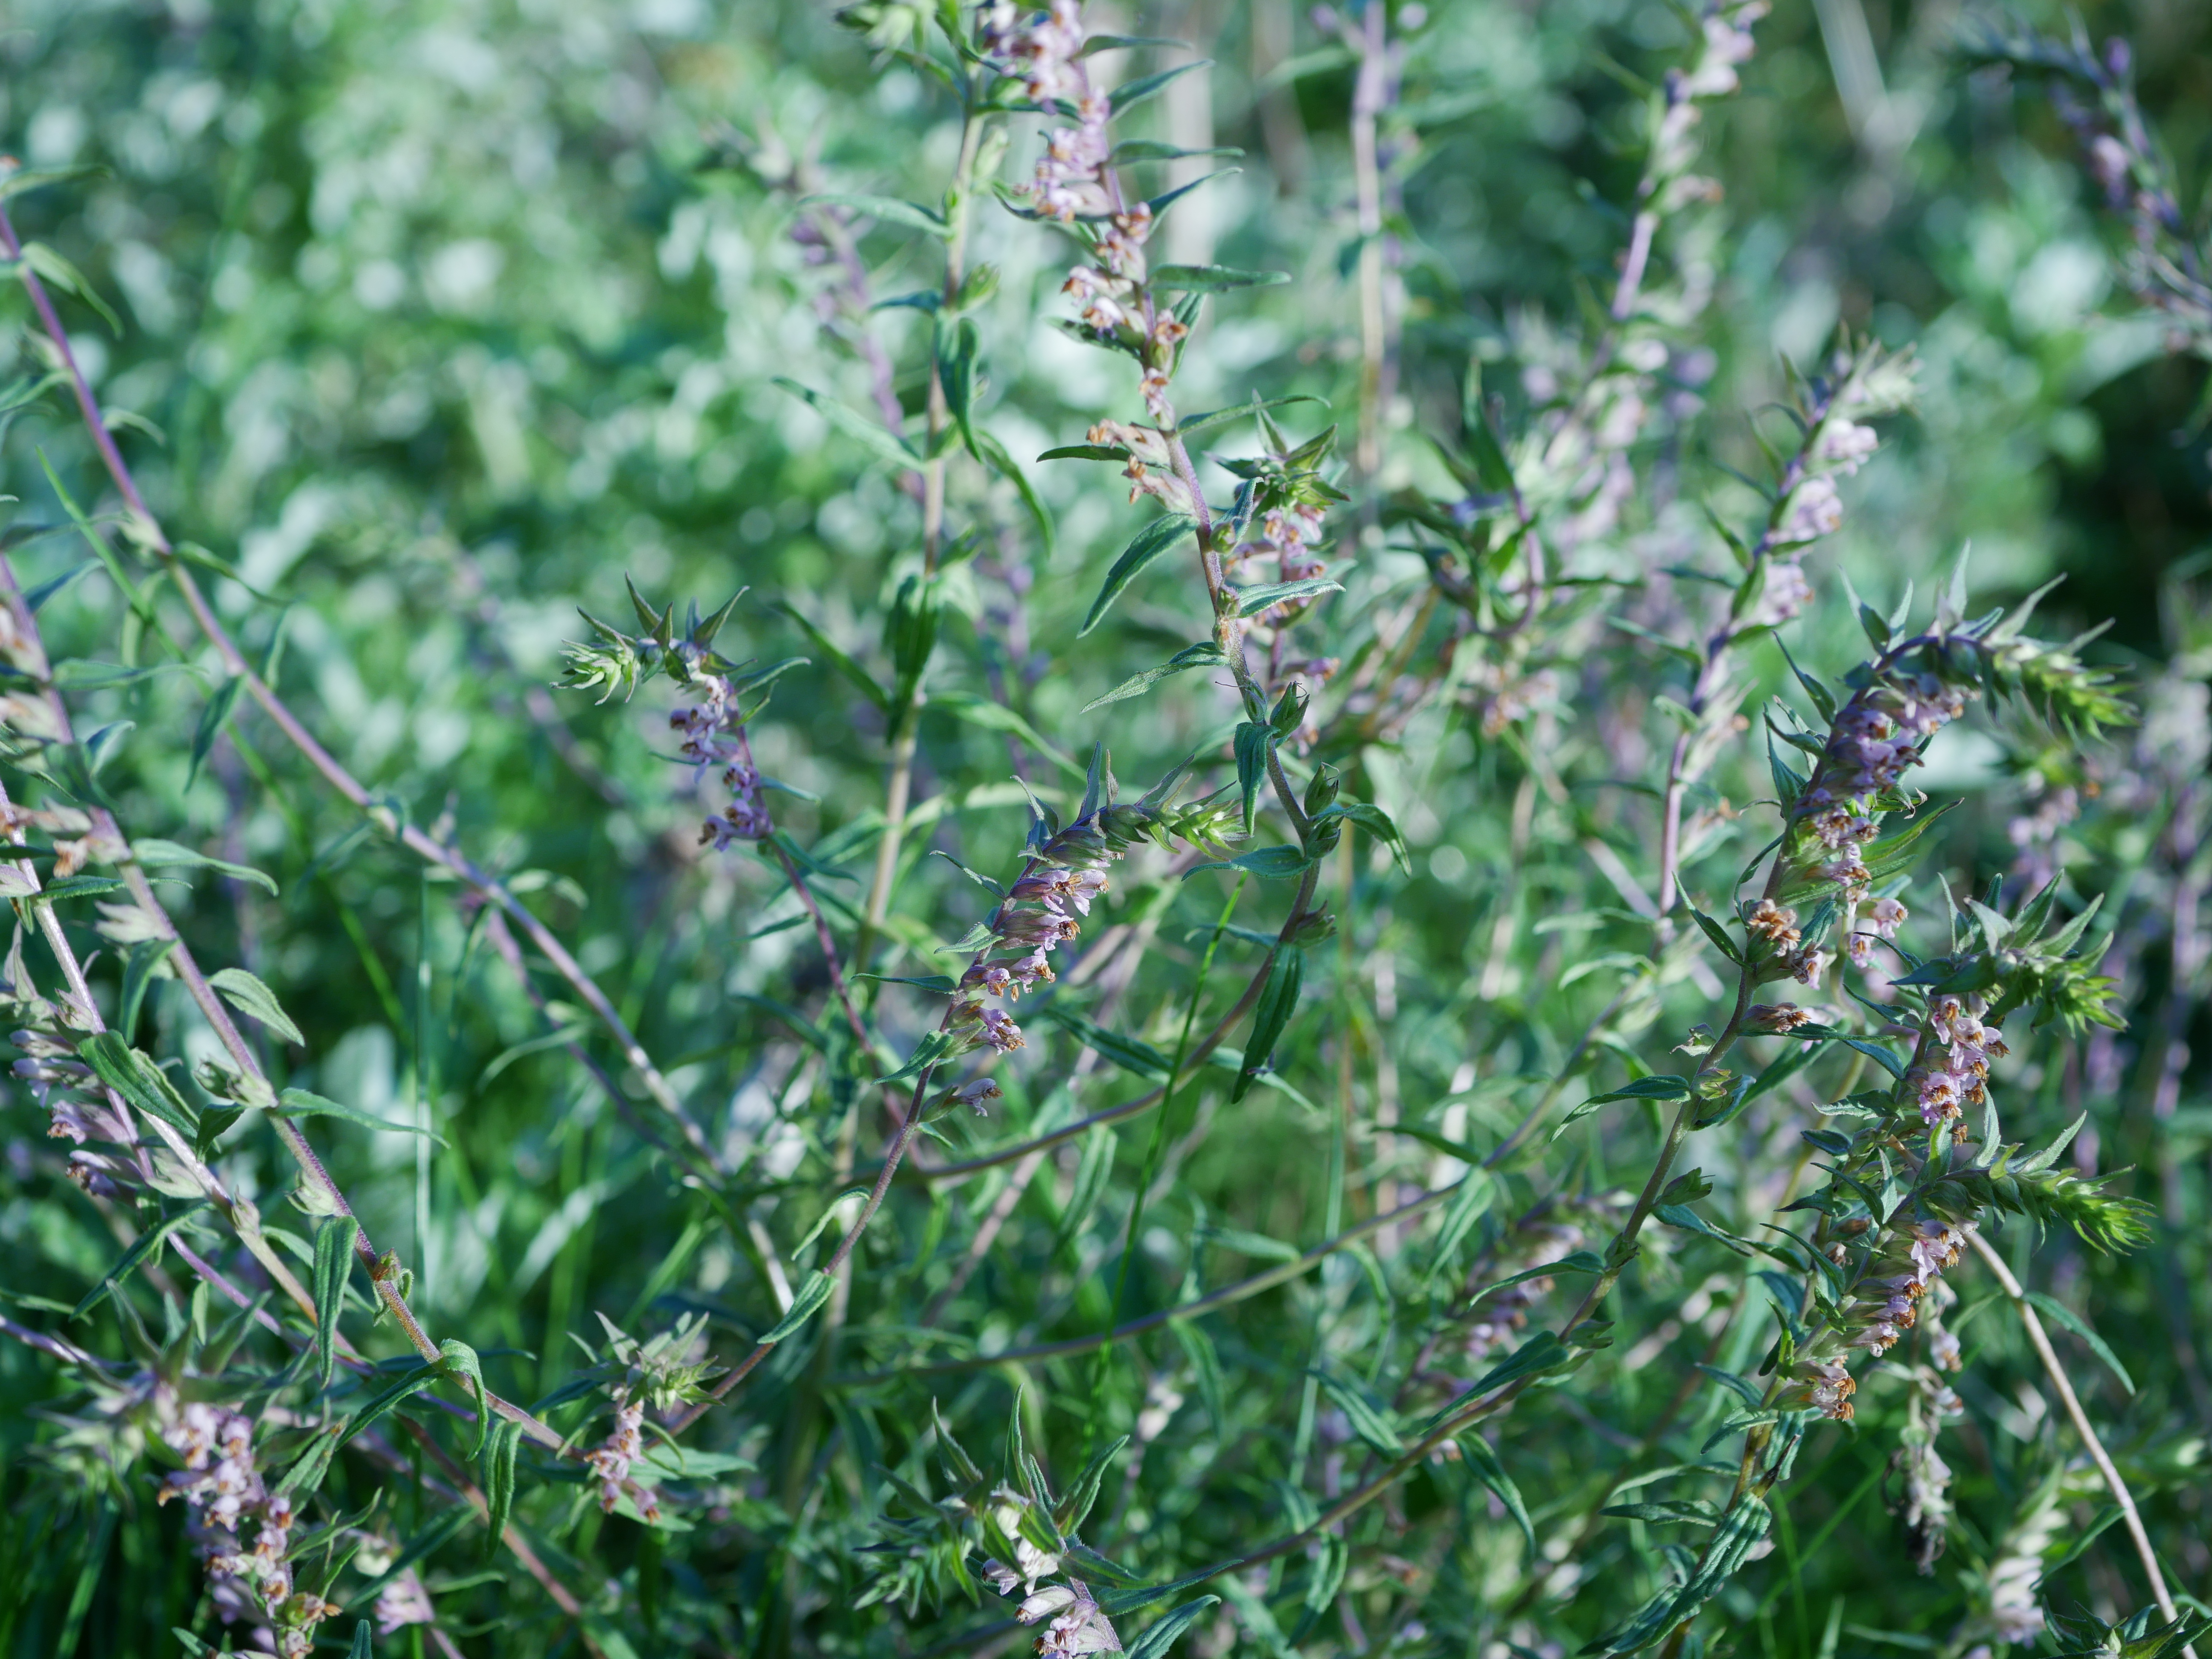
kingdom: Plantae
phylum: Tracheophyta
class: Magnoliopsida
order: Lamiales
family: Orobanchaceae
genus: Odontites
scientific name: Odontites vernus
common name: Mark-rødtop
